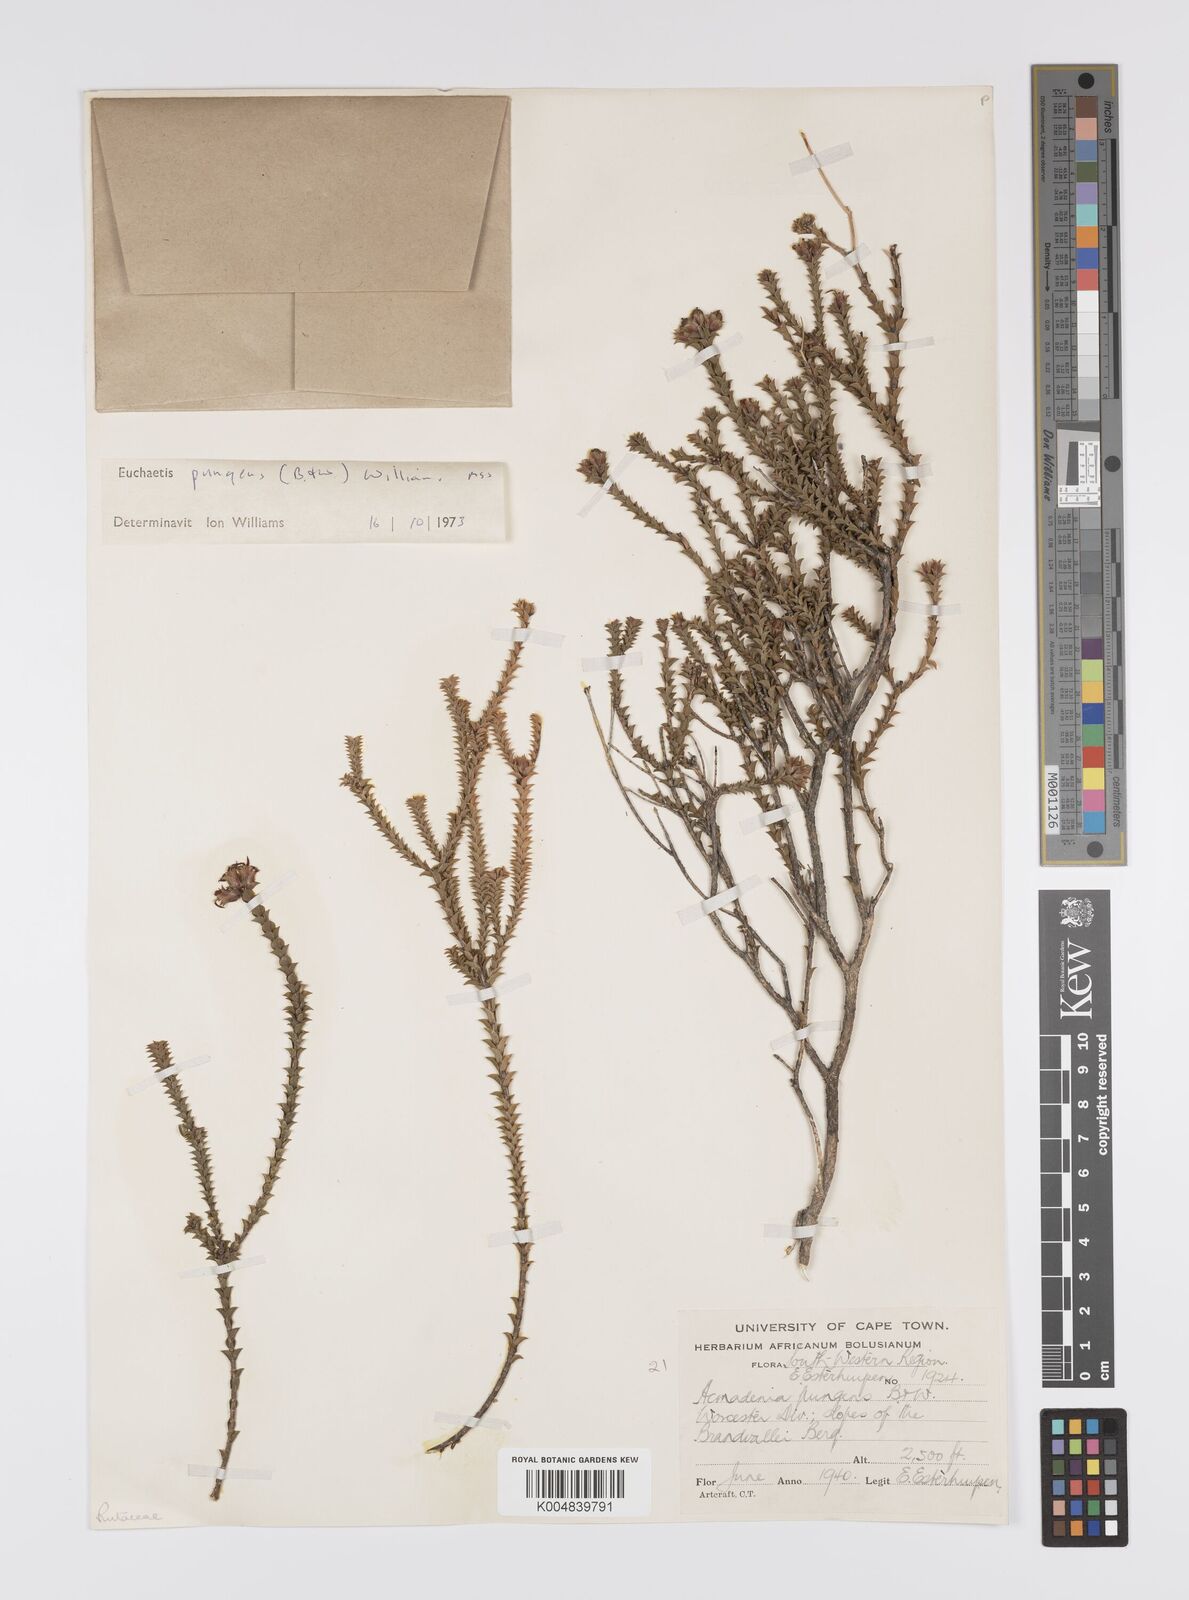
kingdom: Plantae
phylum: Tracheophyta
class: Magnoliopsida
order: Sapindales
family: Rutaceae
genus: Euchaetis
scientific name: Euchaetis pungens
